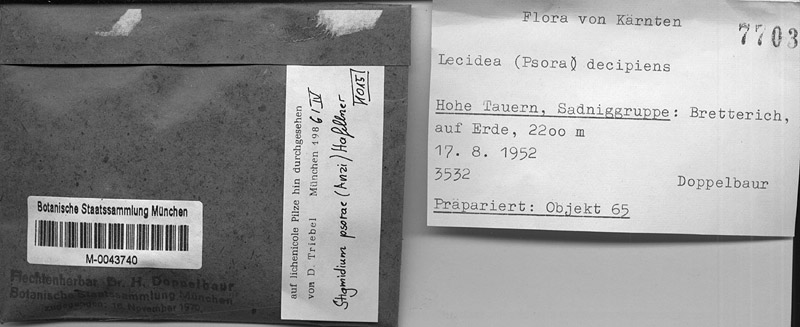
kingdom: Fungi
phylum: Ascomycota
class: Dothideomycetes
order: Mycosphaerellales
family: Mycosphaerellaceae
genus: Stigmidium
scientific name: Stigmidium allogenum
